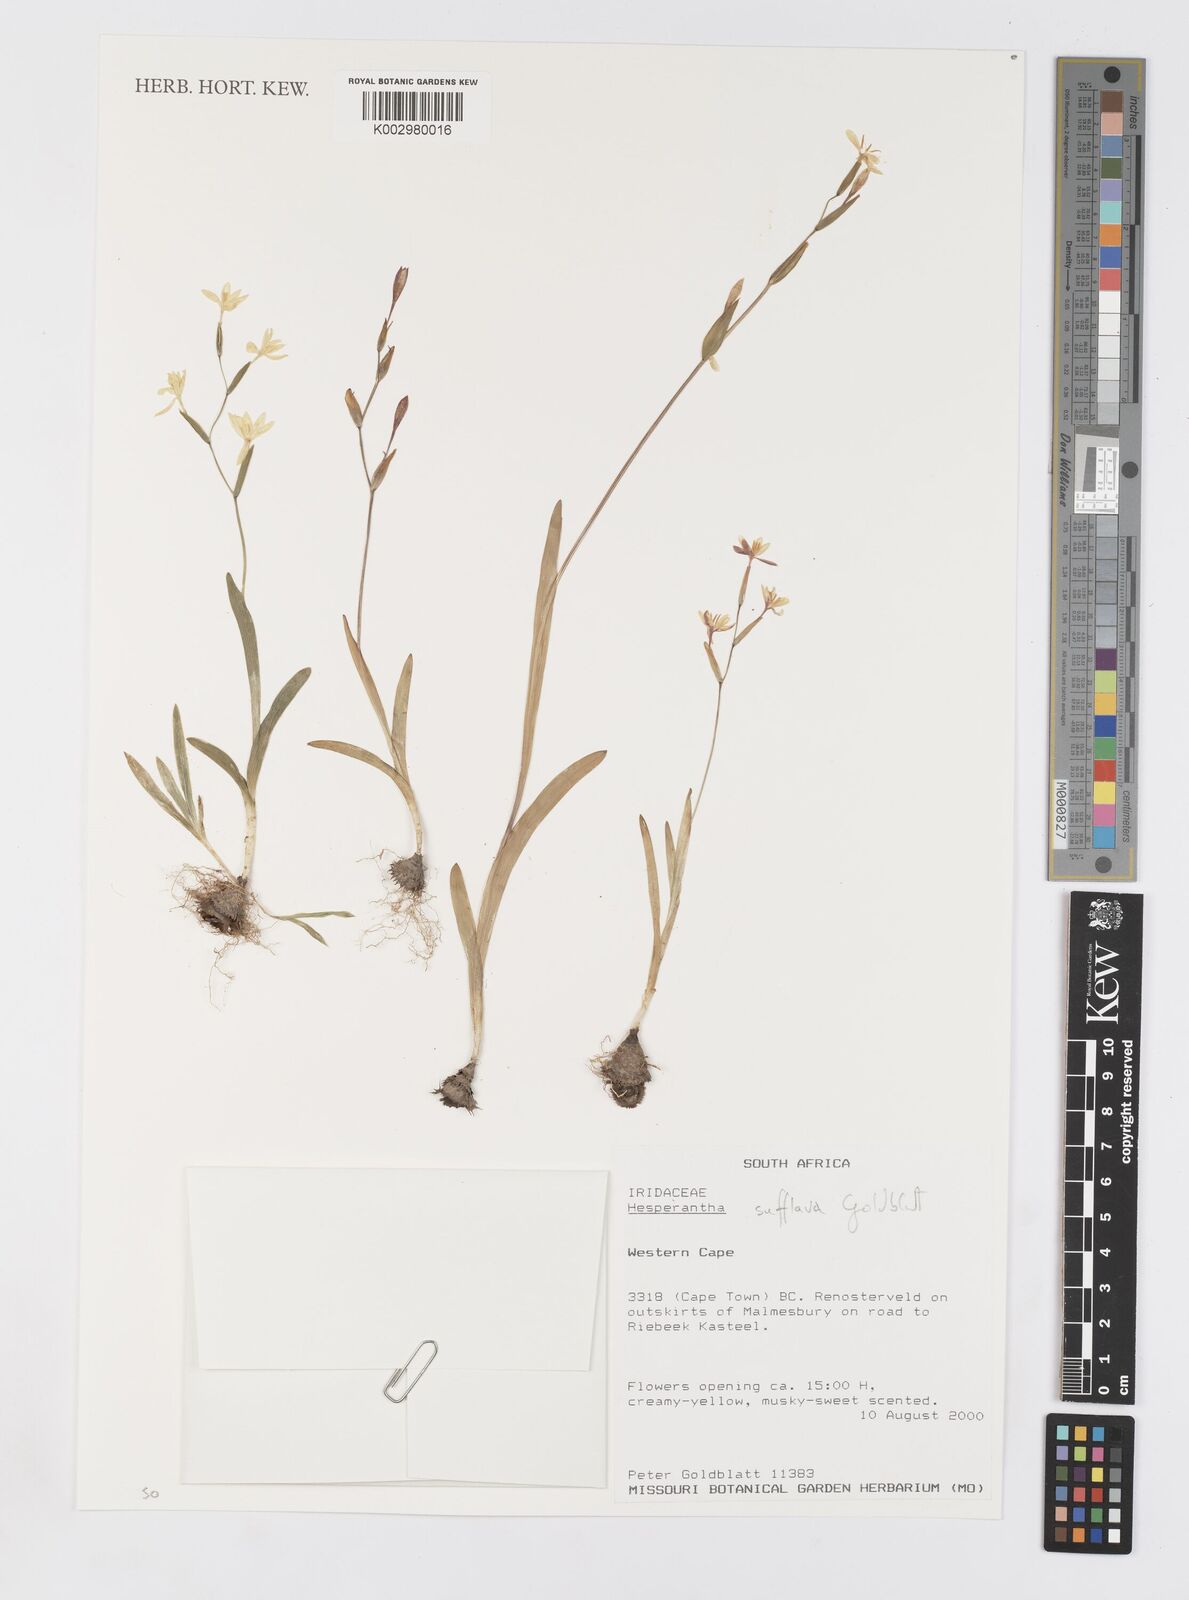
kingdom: Plantae
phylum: Tracheophyta
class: Liliopsida
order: Asparagales
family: Iridaceae
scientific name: Iridaceae
